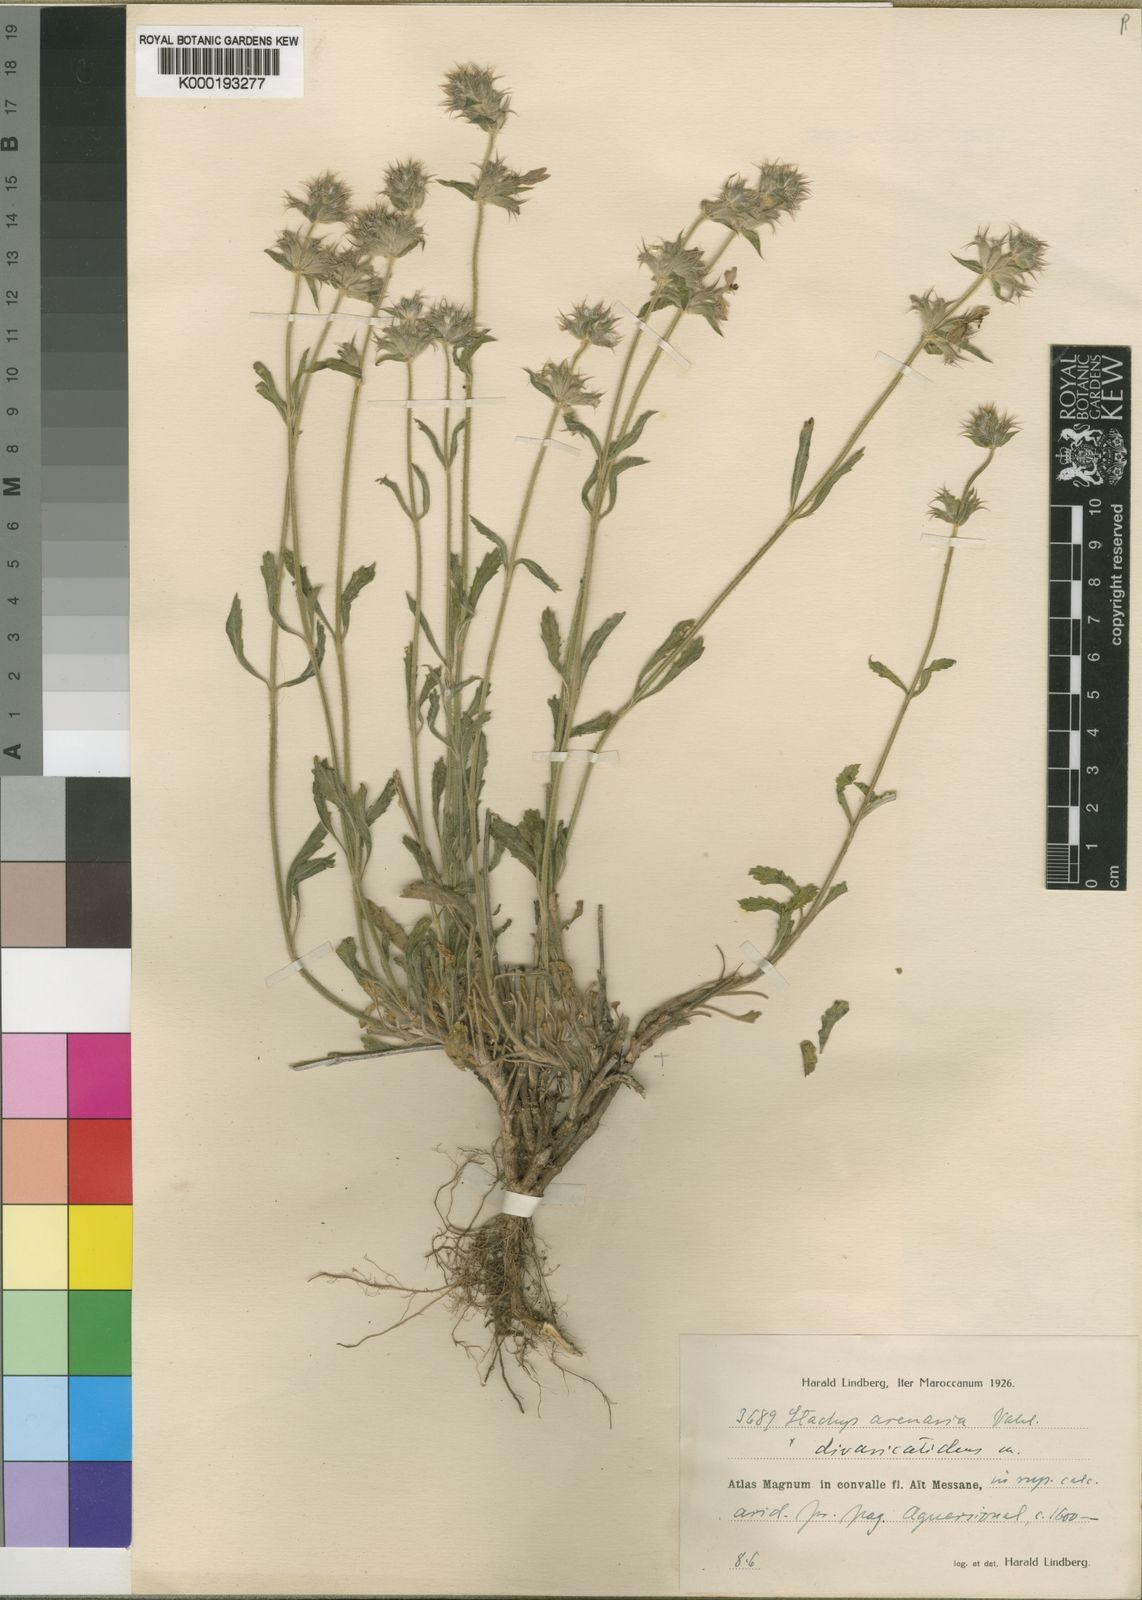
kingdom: Plantae
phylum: Tracheophyta
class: Magnoliopsida
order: Lamiales
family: Lamiaceae
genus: Stachys
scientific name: Stachys iberica
